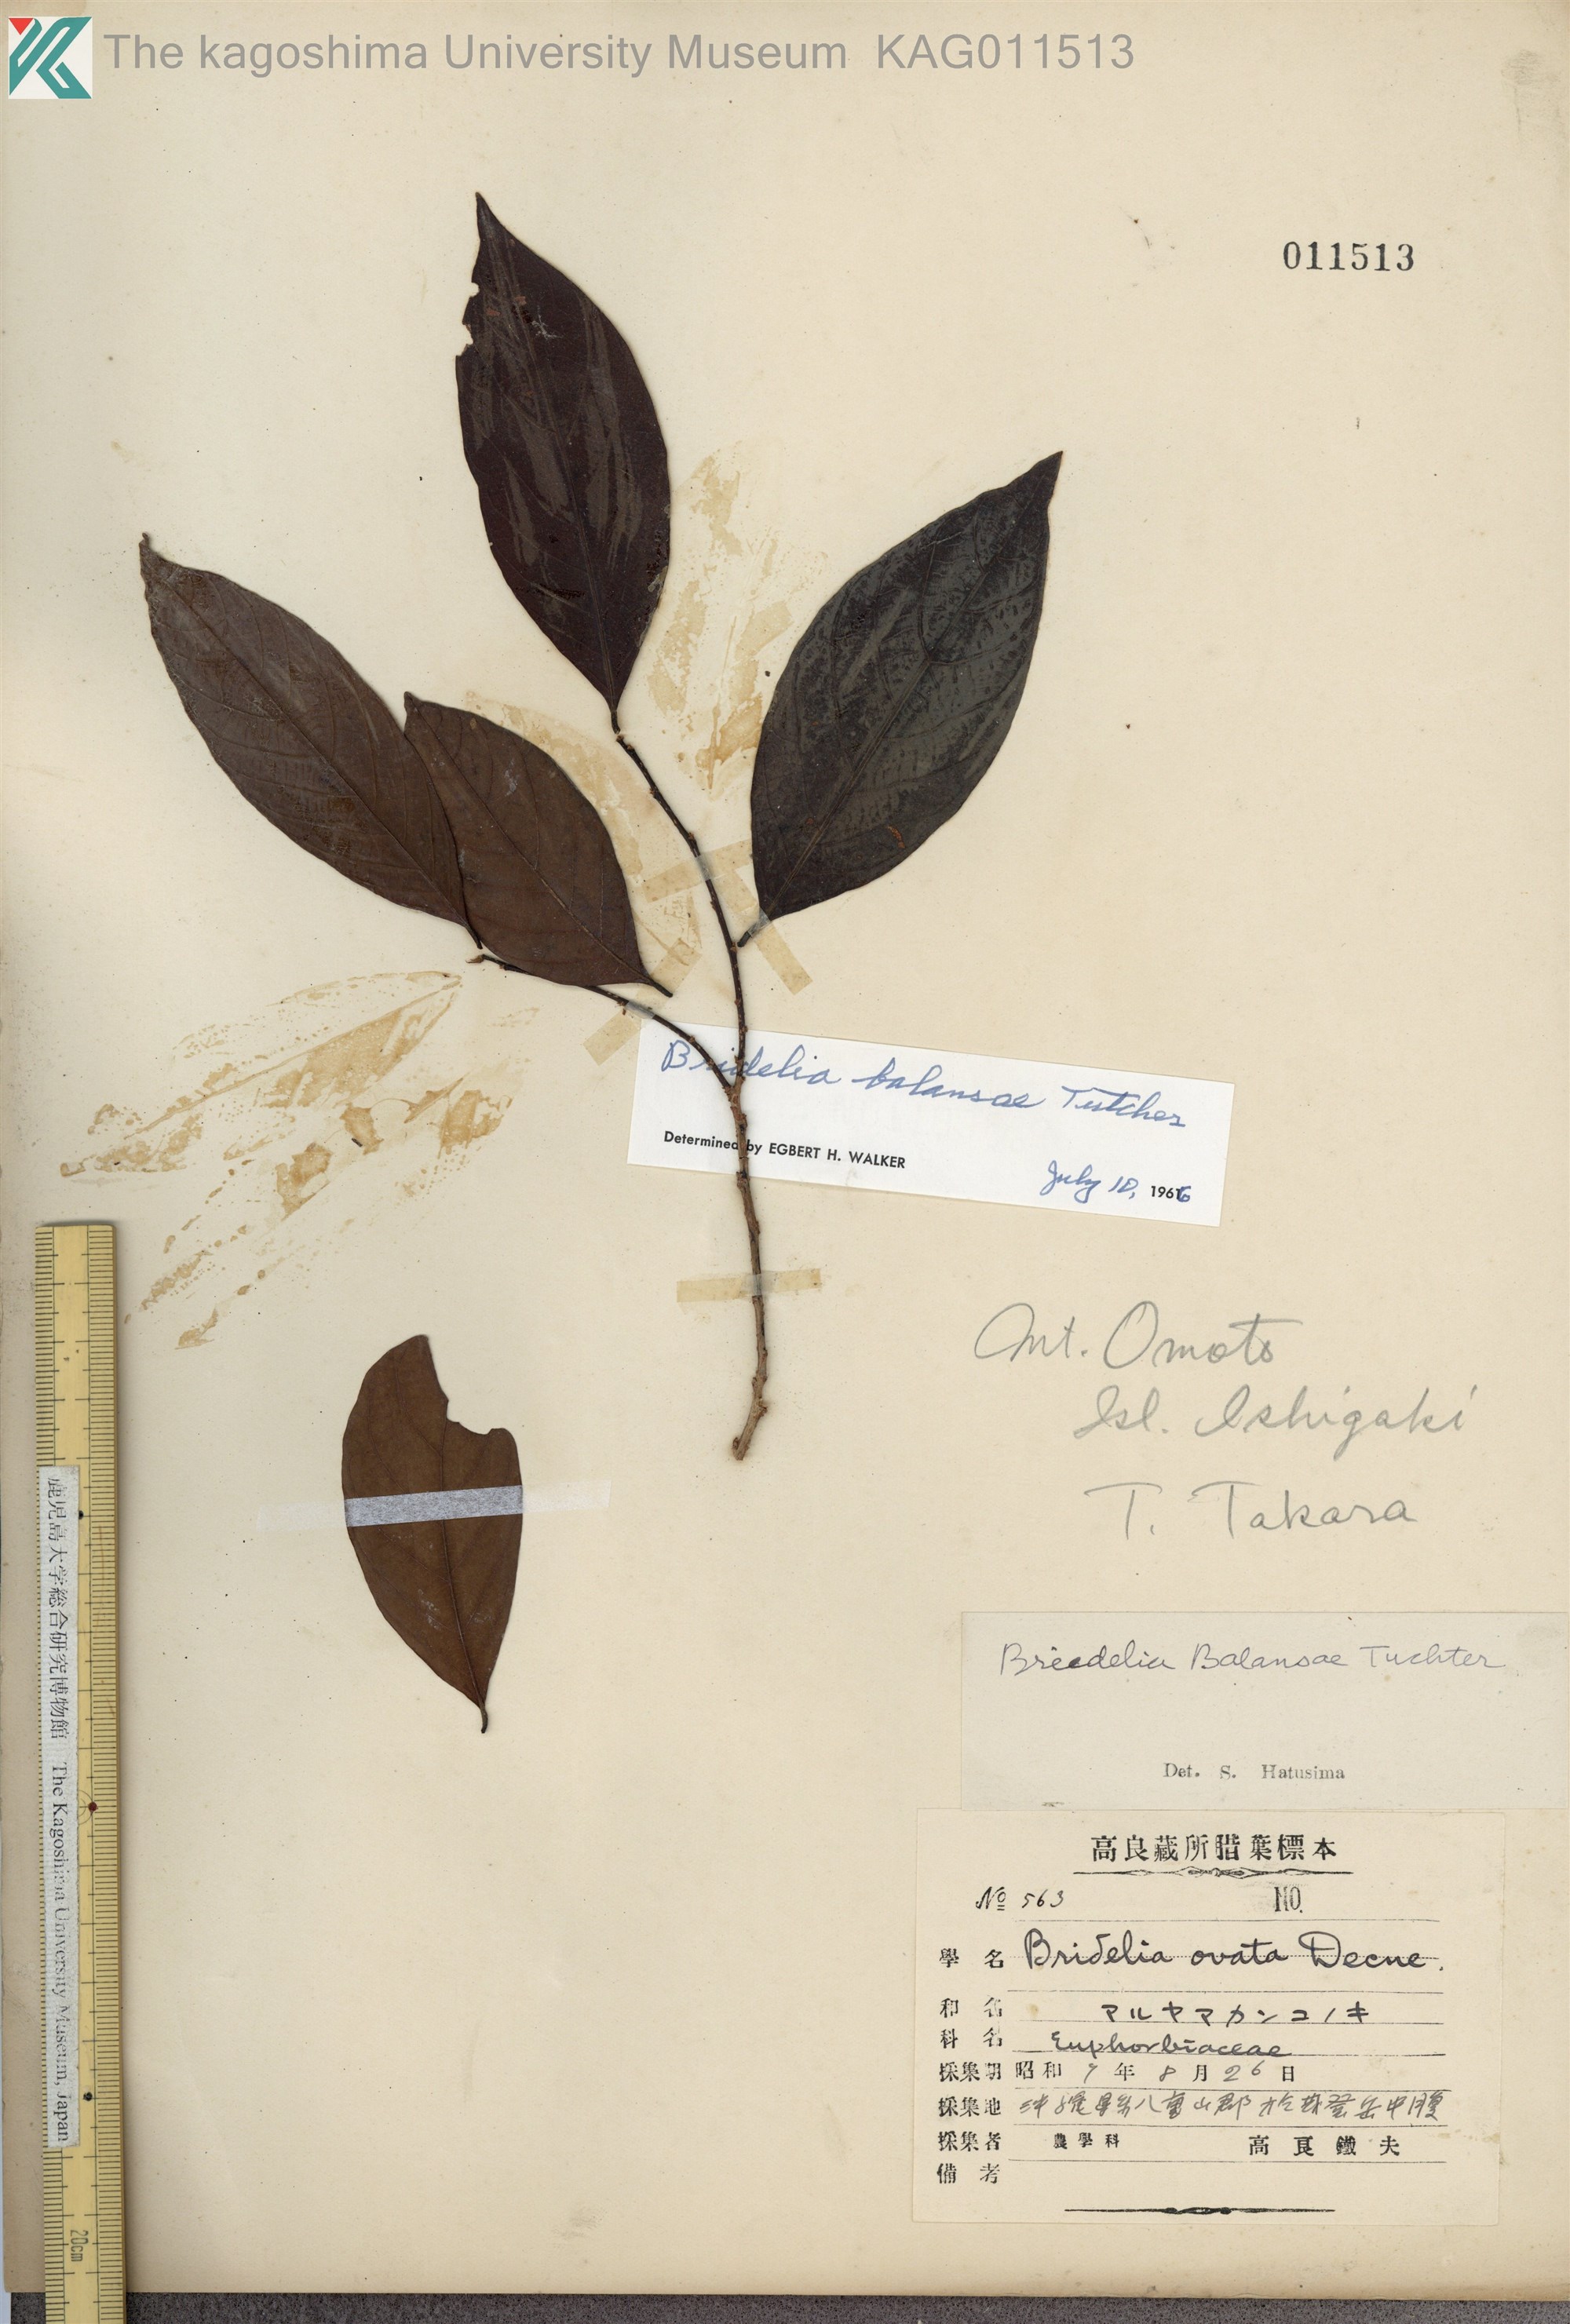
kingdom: Plantae
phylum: Tracheophyta
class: Magnoliopsida
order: Malpighiales
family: Phyllanthaceae
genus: Bridelia
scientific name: Bridelia balansae
